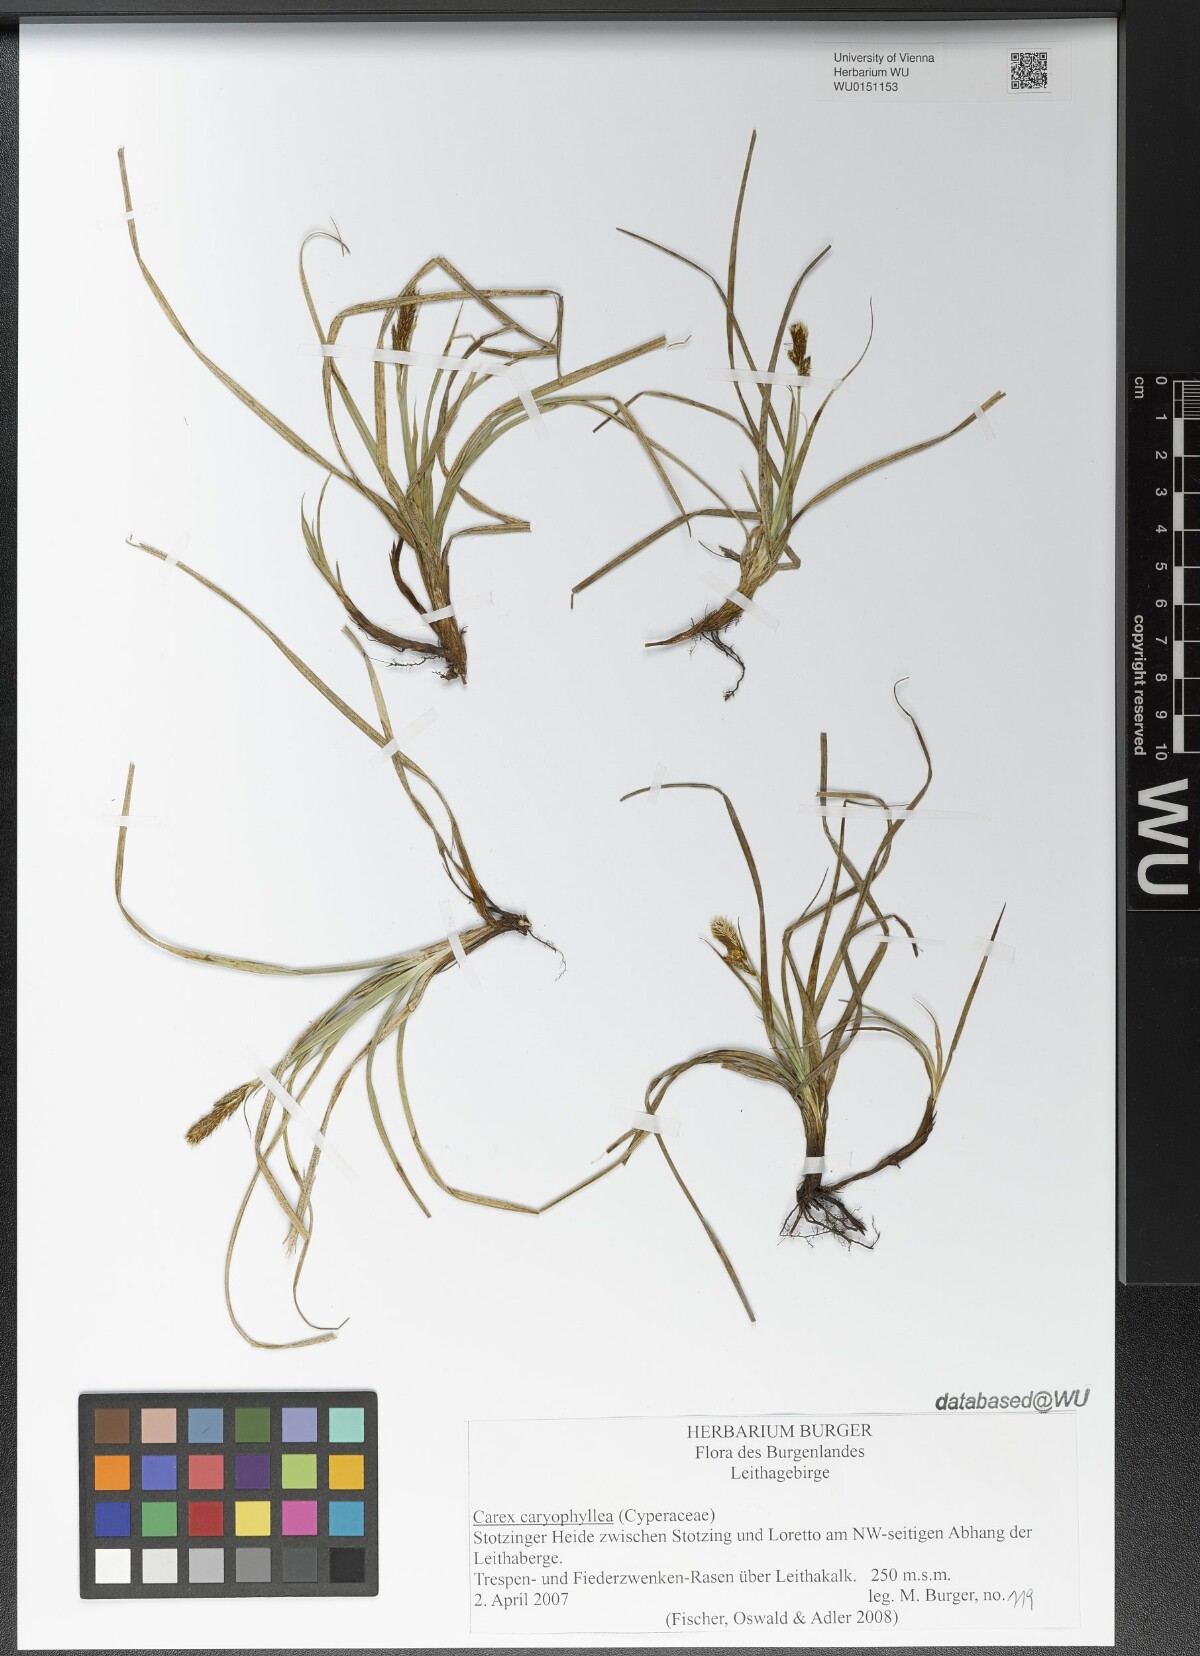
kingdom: Plantae
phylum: Tracheophyta
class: Liliopsida
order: Poales
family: Cyperaceae
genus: Carex
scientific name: Carex caryophyllea
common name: Spring sedge
